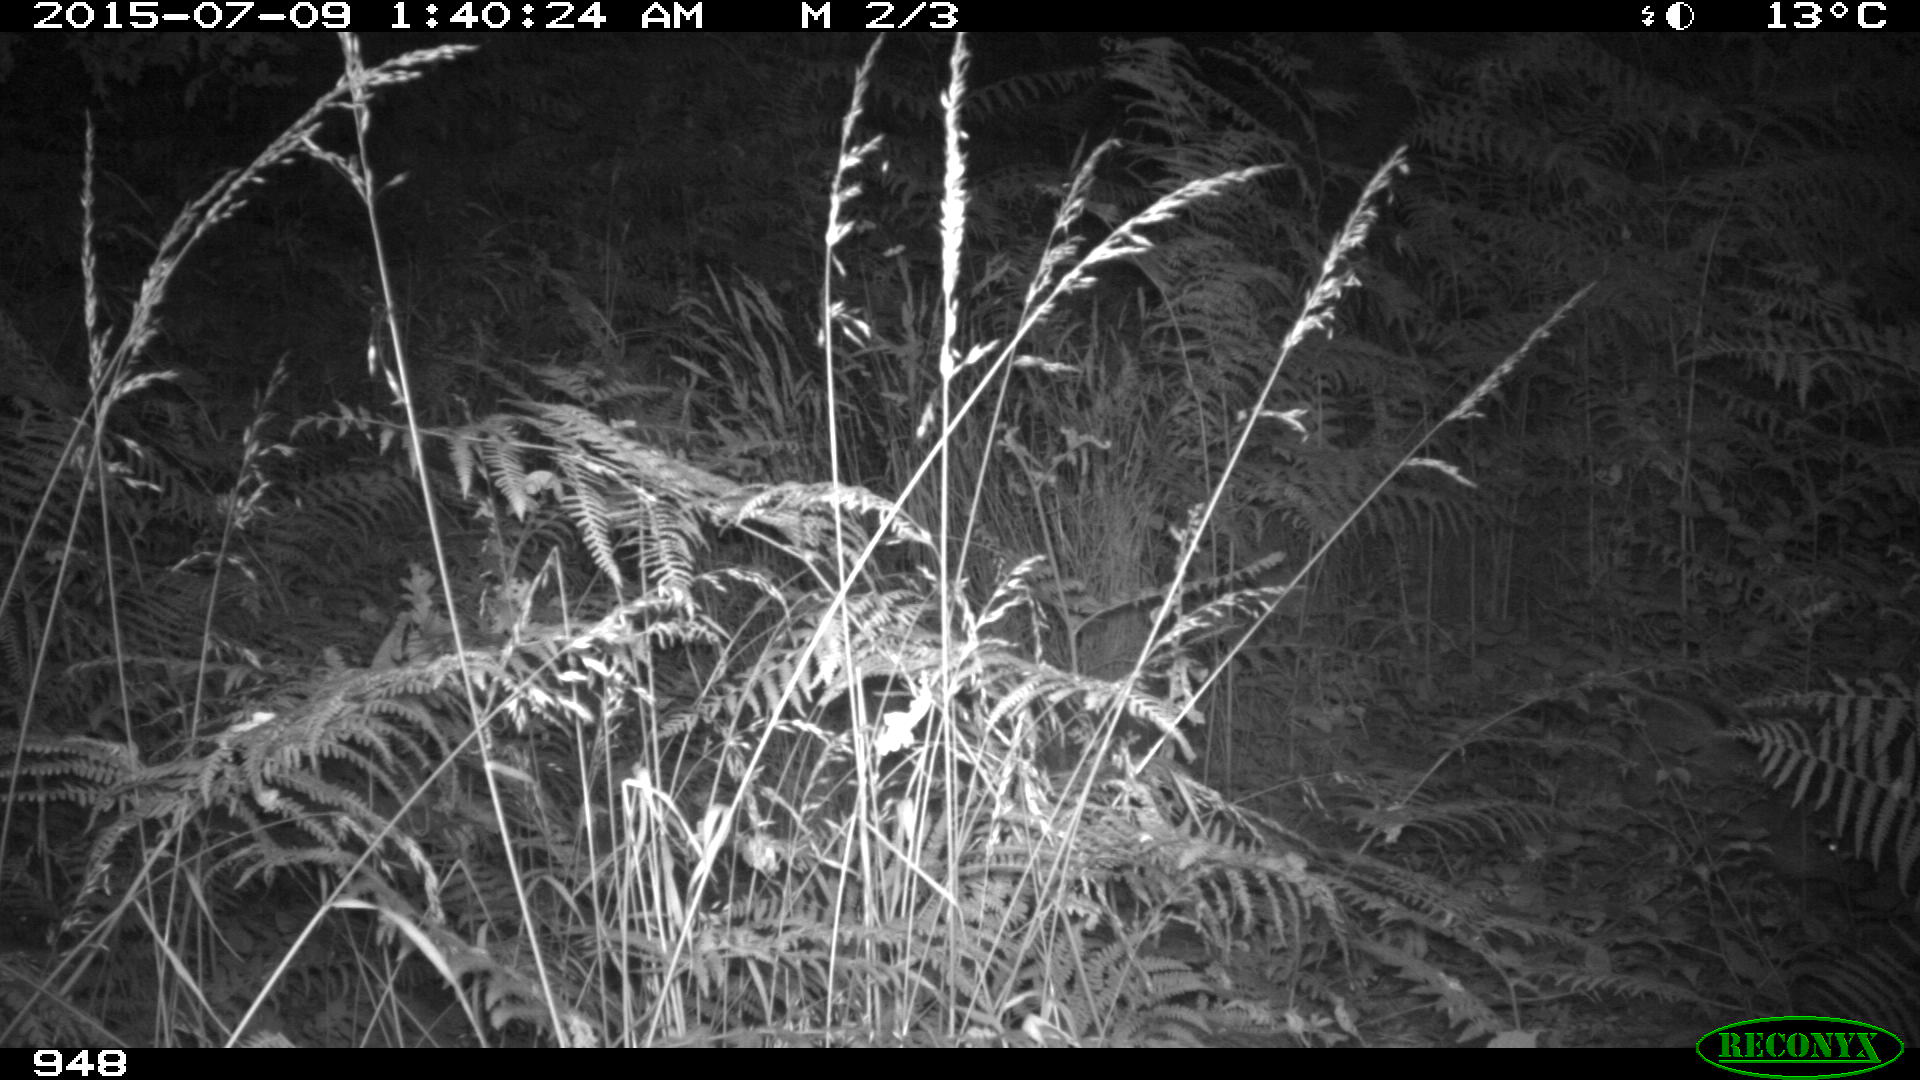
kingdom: Animalia
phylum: Chordata
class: Mammalia
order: Artiodactyla
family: Suidae
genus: Sus
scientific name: Sus scrofa
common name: Wild boar
